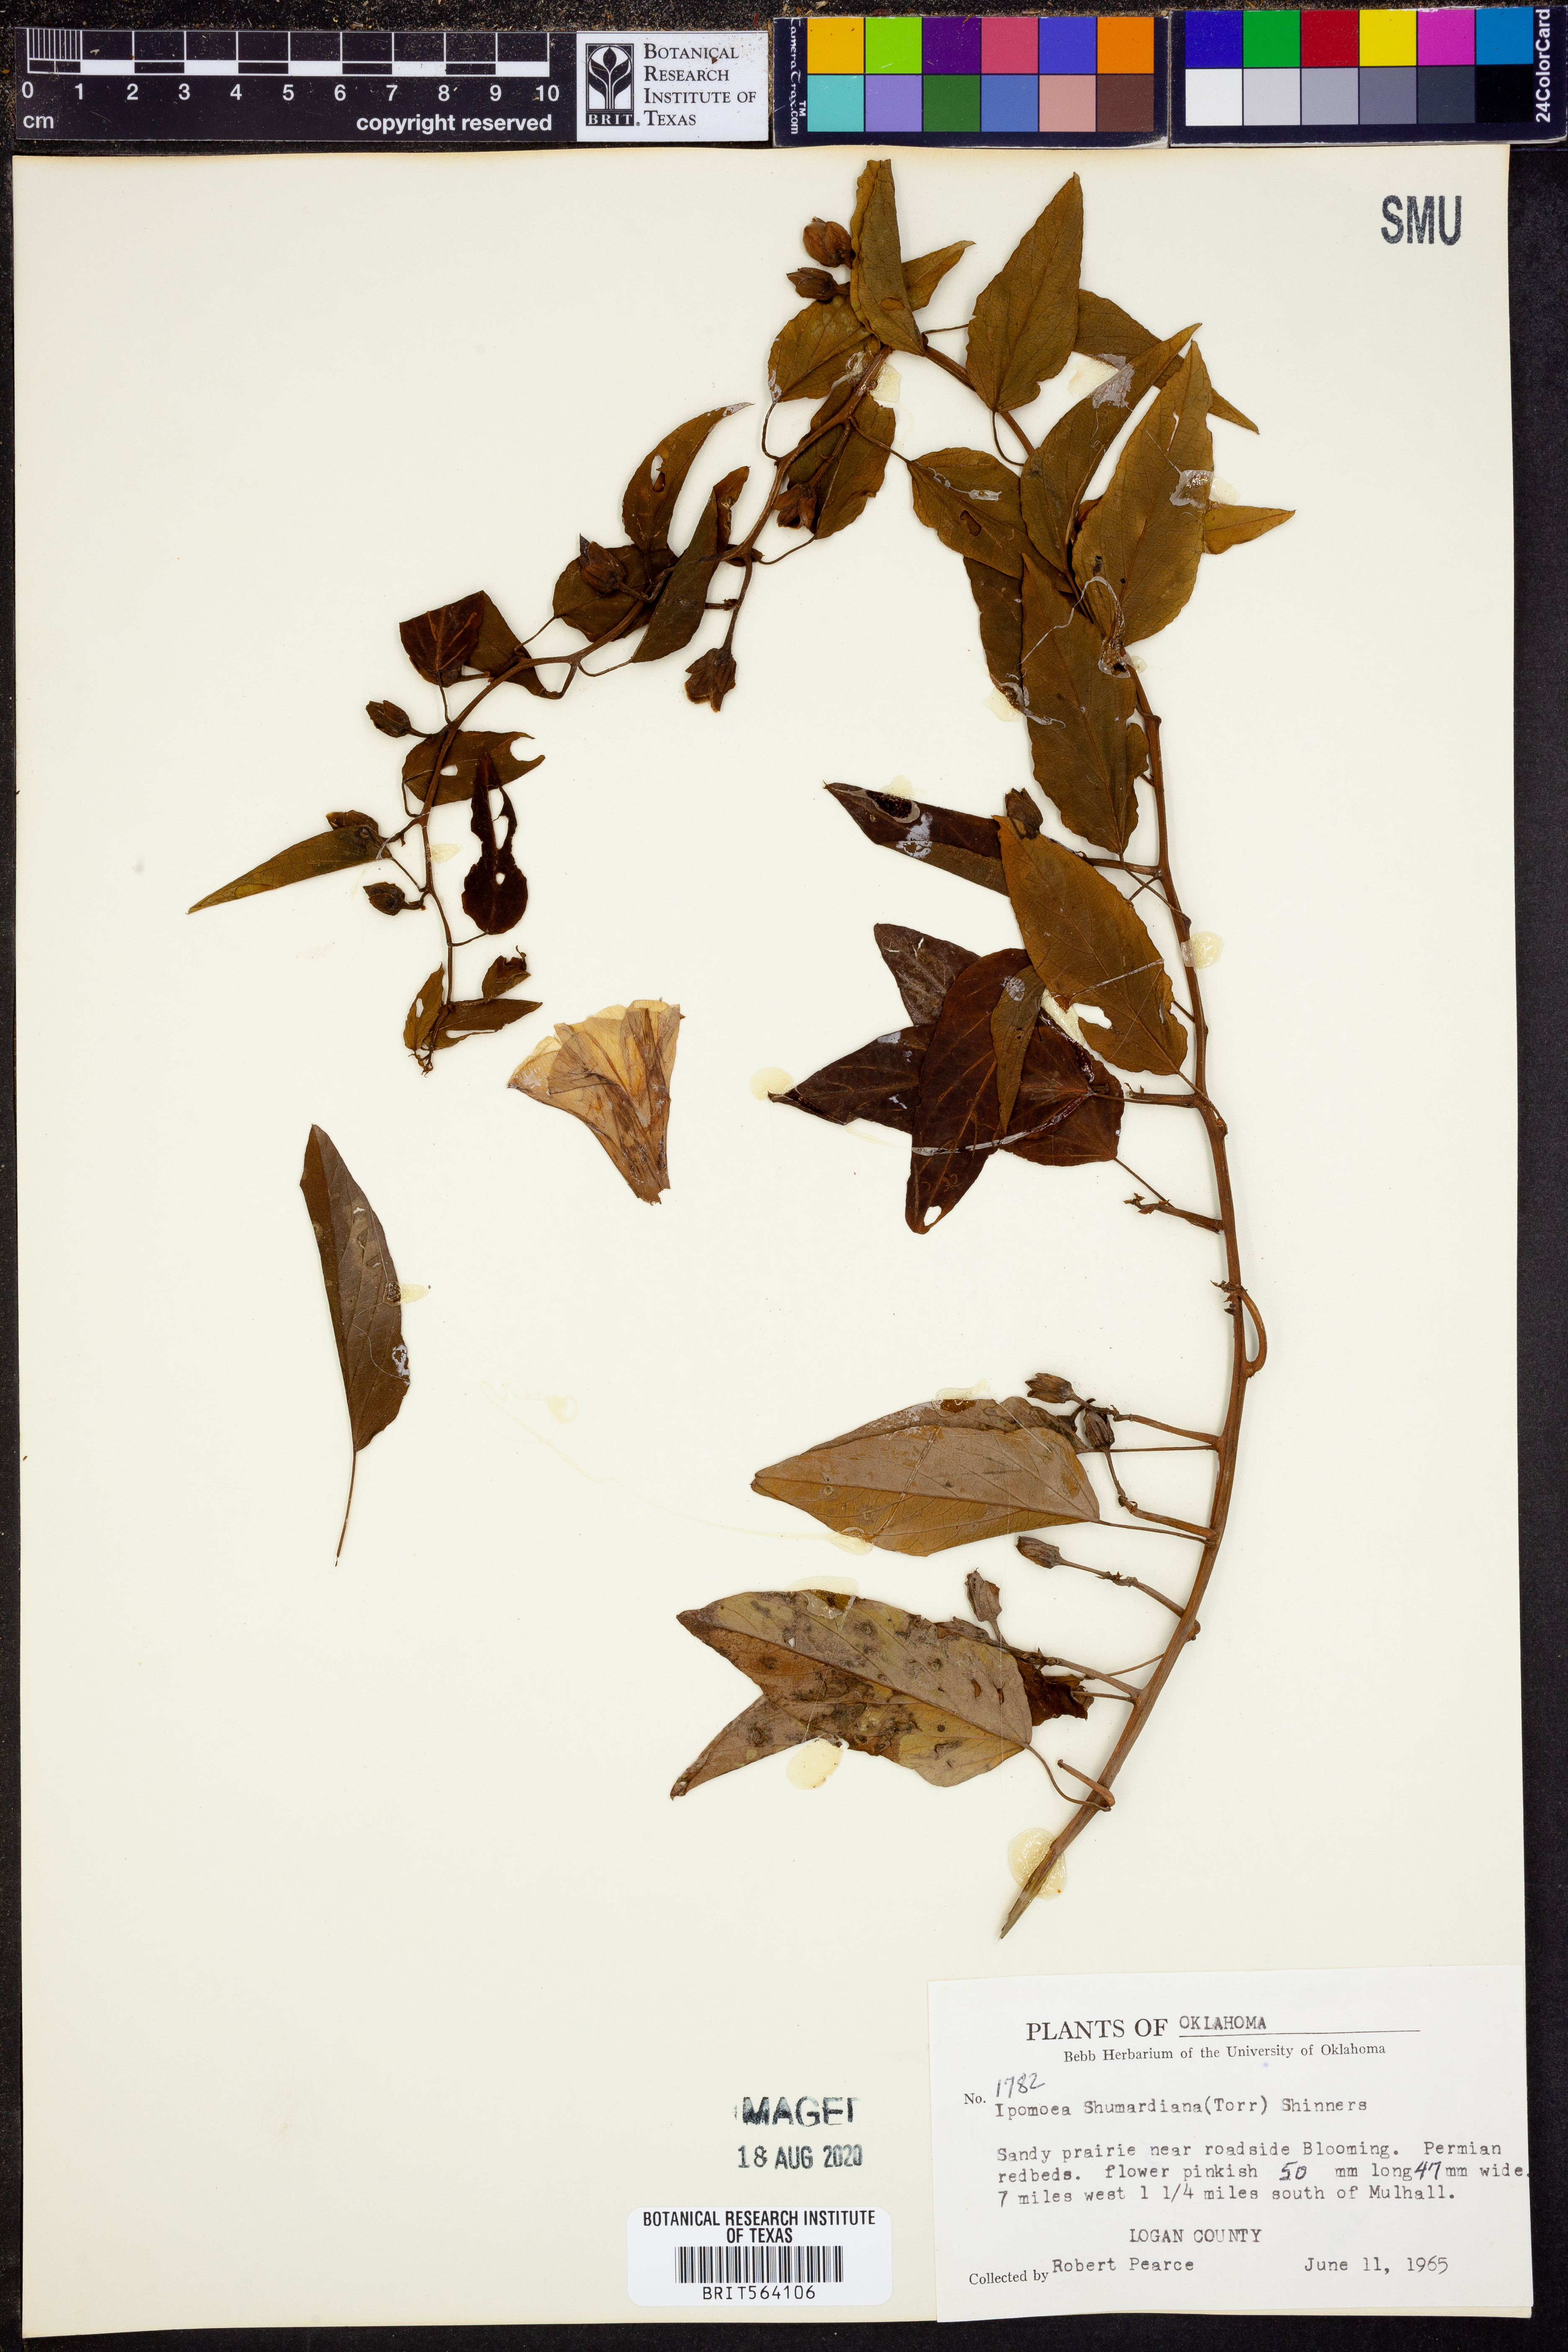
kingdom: Plantae
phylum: Tracheophyta
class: Magnoliopsida
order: Solanales
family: Convolvulaceae
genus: Ipomoea
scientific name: Ipomoea shumardiana
